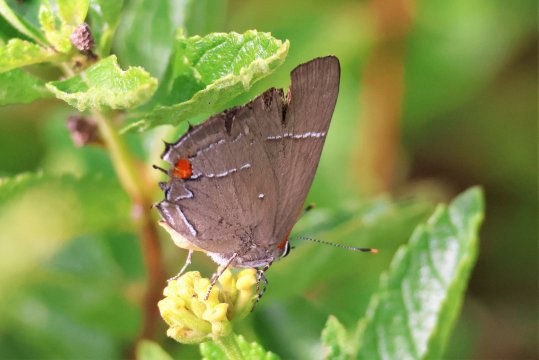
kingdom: Animalia
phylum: Arthropoda
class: Insecta
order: Lepidoptera
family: Lycaenidae
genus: Parrhasius
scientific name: Parrhasius m-album
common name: White-m Hairstreak
